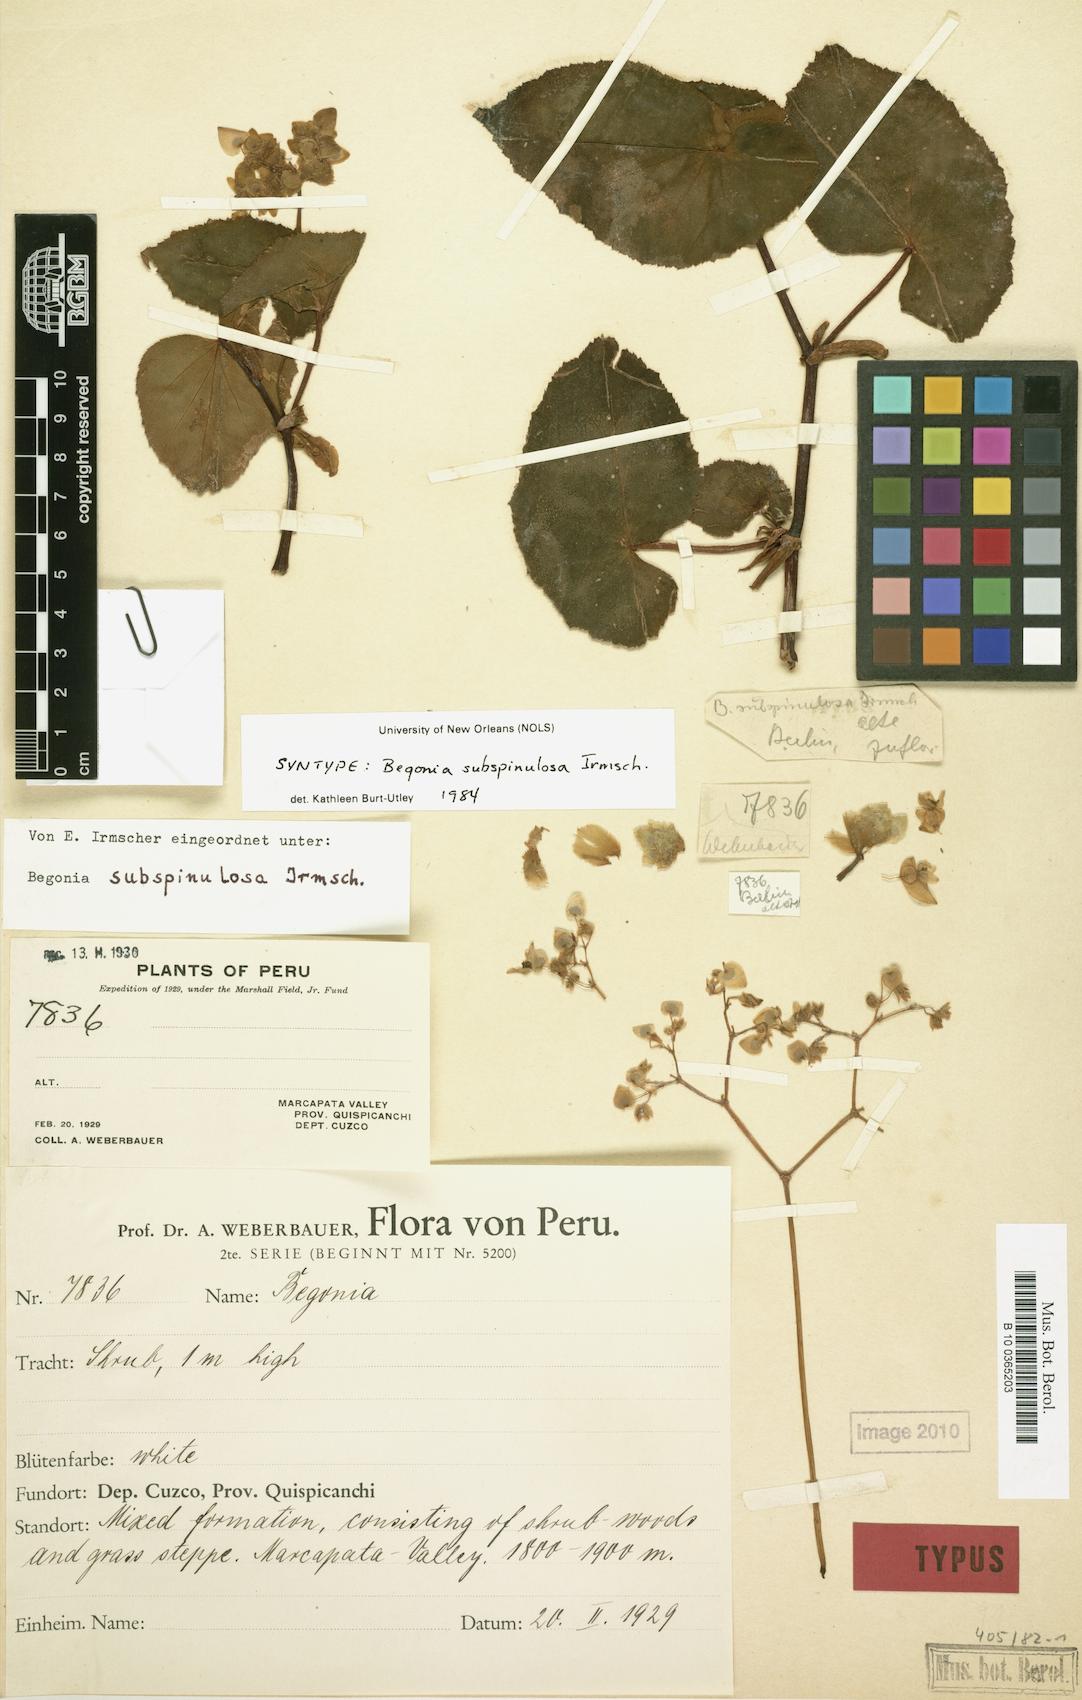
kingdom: Plantae
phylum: Tracheophyta
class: Magnoliopsida
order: Cucurbitales
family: Begoniaceae
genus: Begonia
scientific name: Begonia subspinulosa
